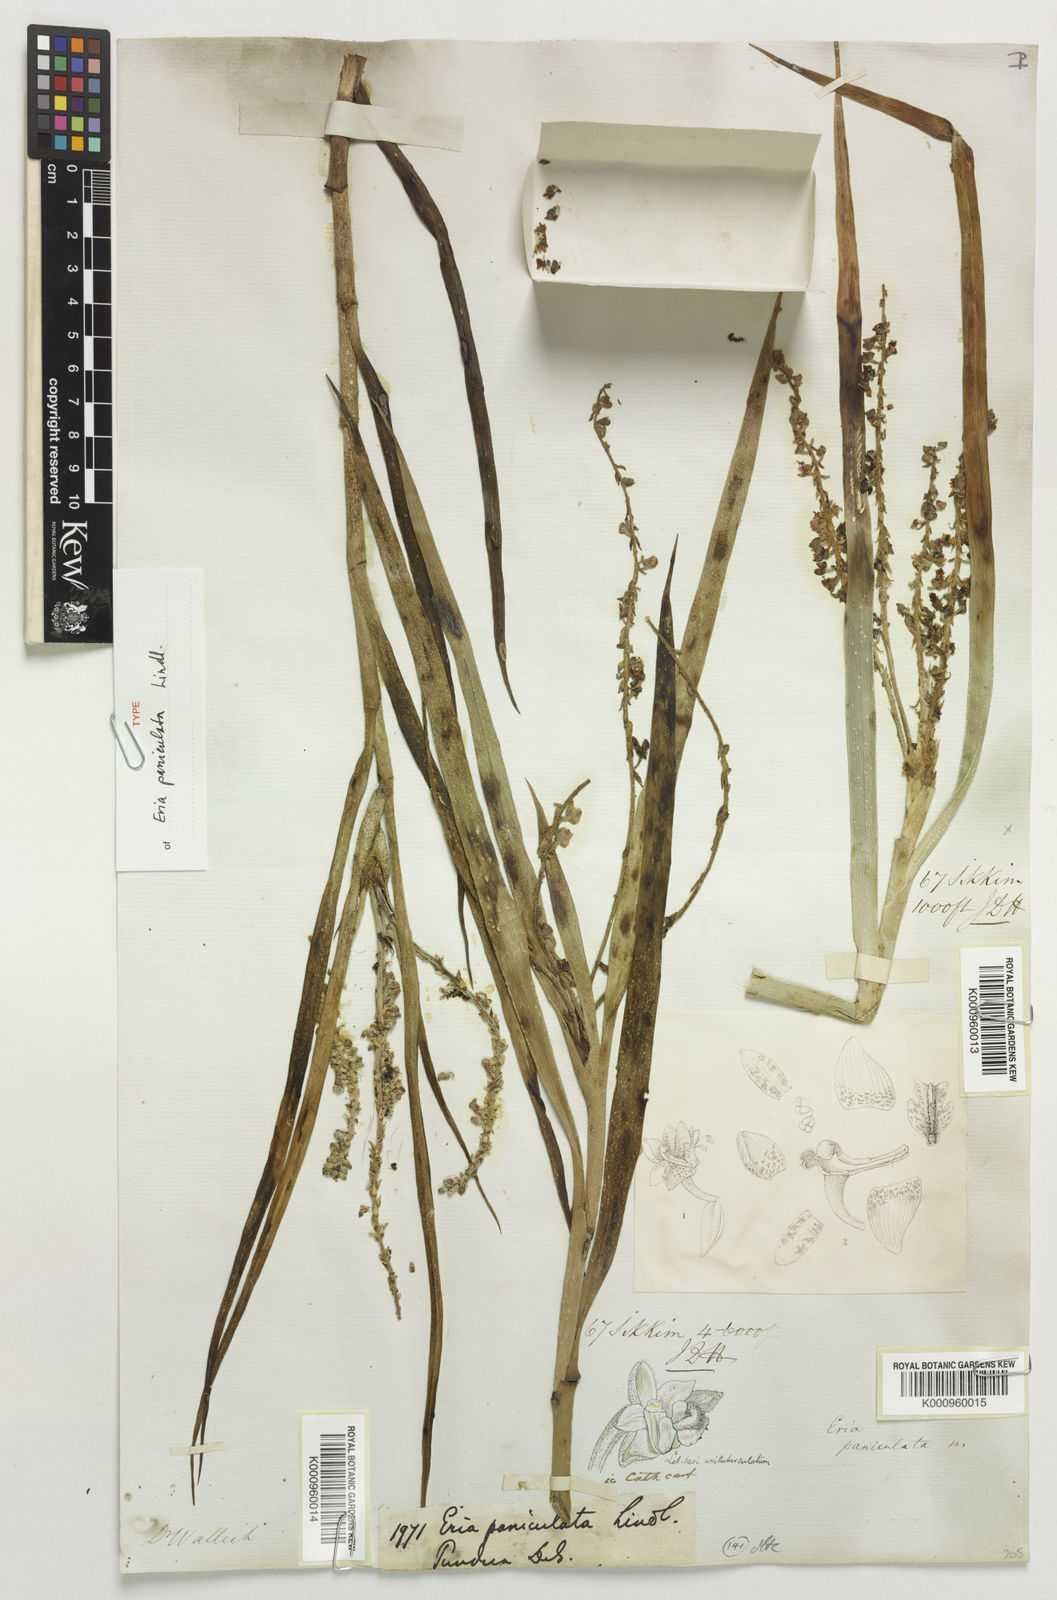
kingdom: Plantae
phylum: Tracheophyta
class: Liliopsida
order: Asparagales
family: Orchidaceae
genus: Mycaranthes
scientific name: Mycaranthes floribunda
